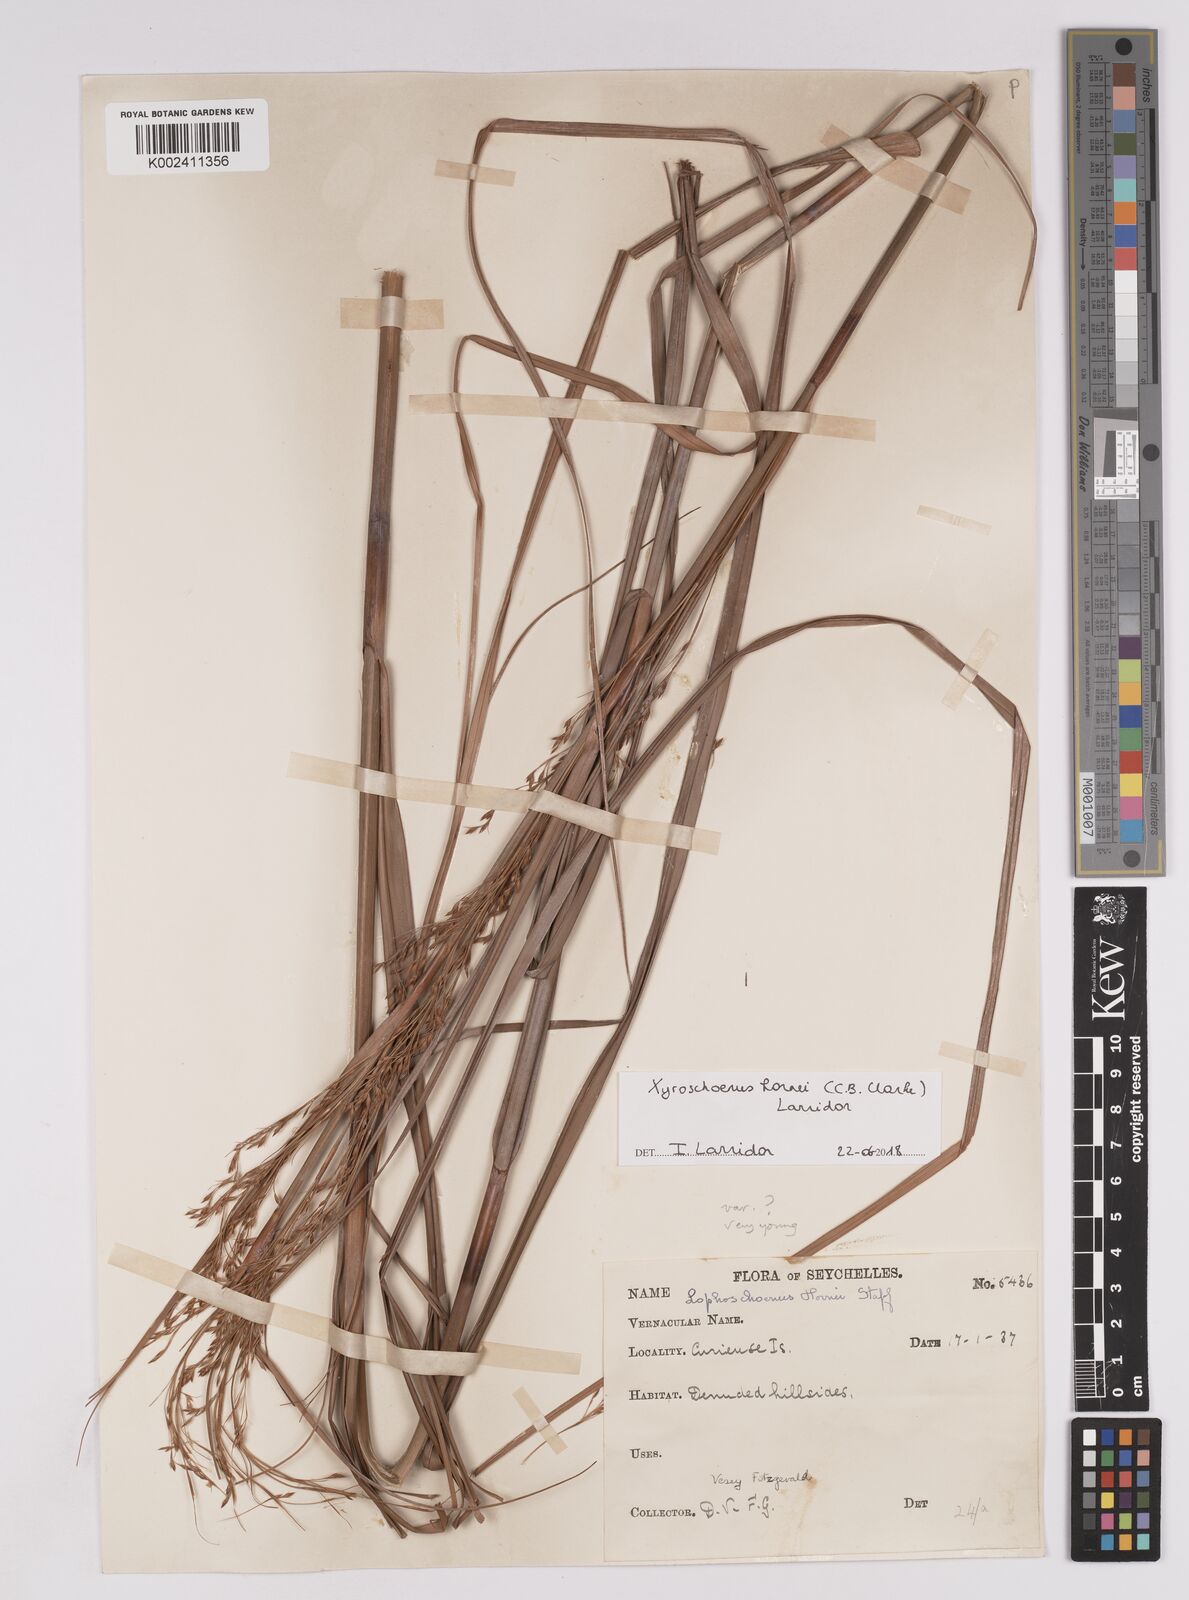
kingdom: Plantae
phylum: Tracheophyta
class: Liliopsida
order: Poales
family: Cyperaceae
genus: Xyroschoenus
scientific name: Xyroschoenus hornei
